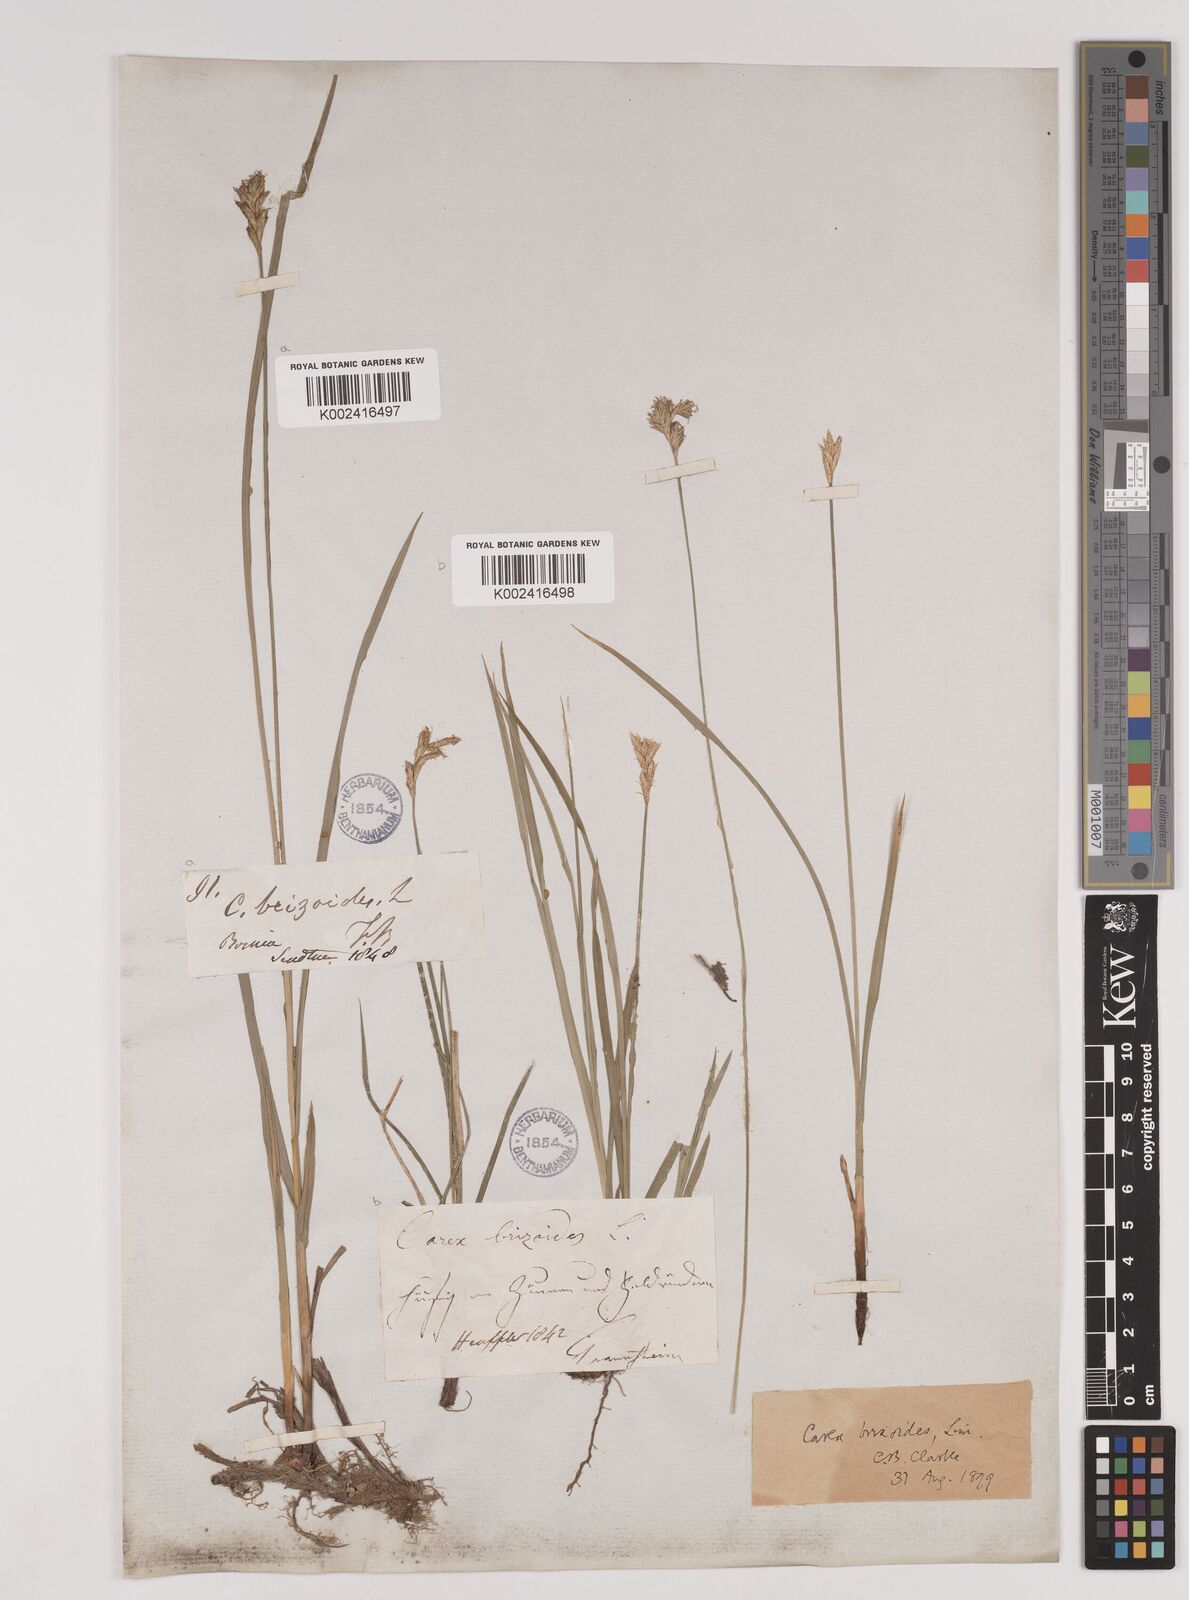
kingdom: Plantae
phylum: Tracheophyta
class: Liliopsida
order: Poales
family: Cyperaceae
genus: Carex
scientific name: Carex brizoides
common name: Quaking-grass sedge
